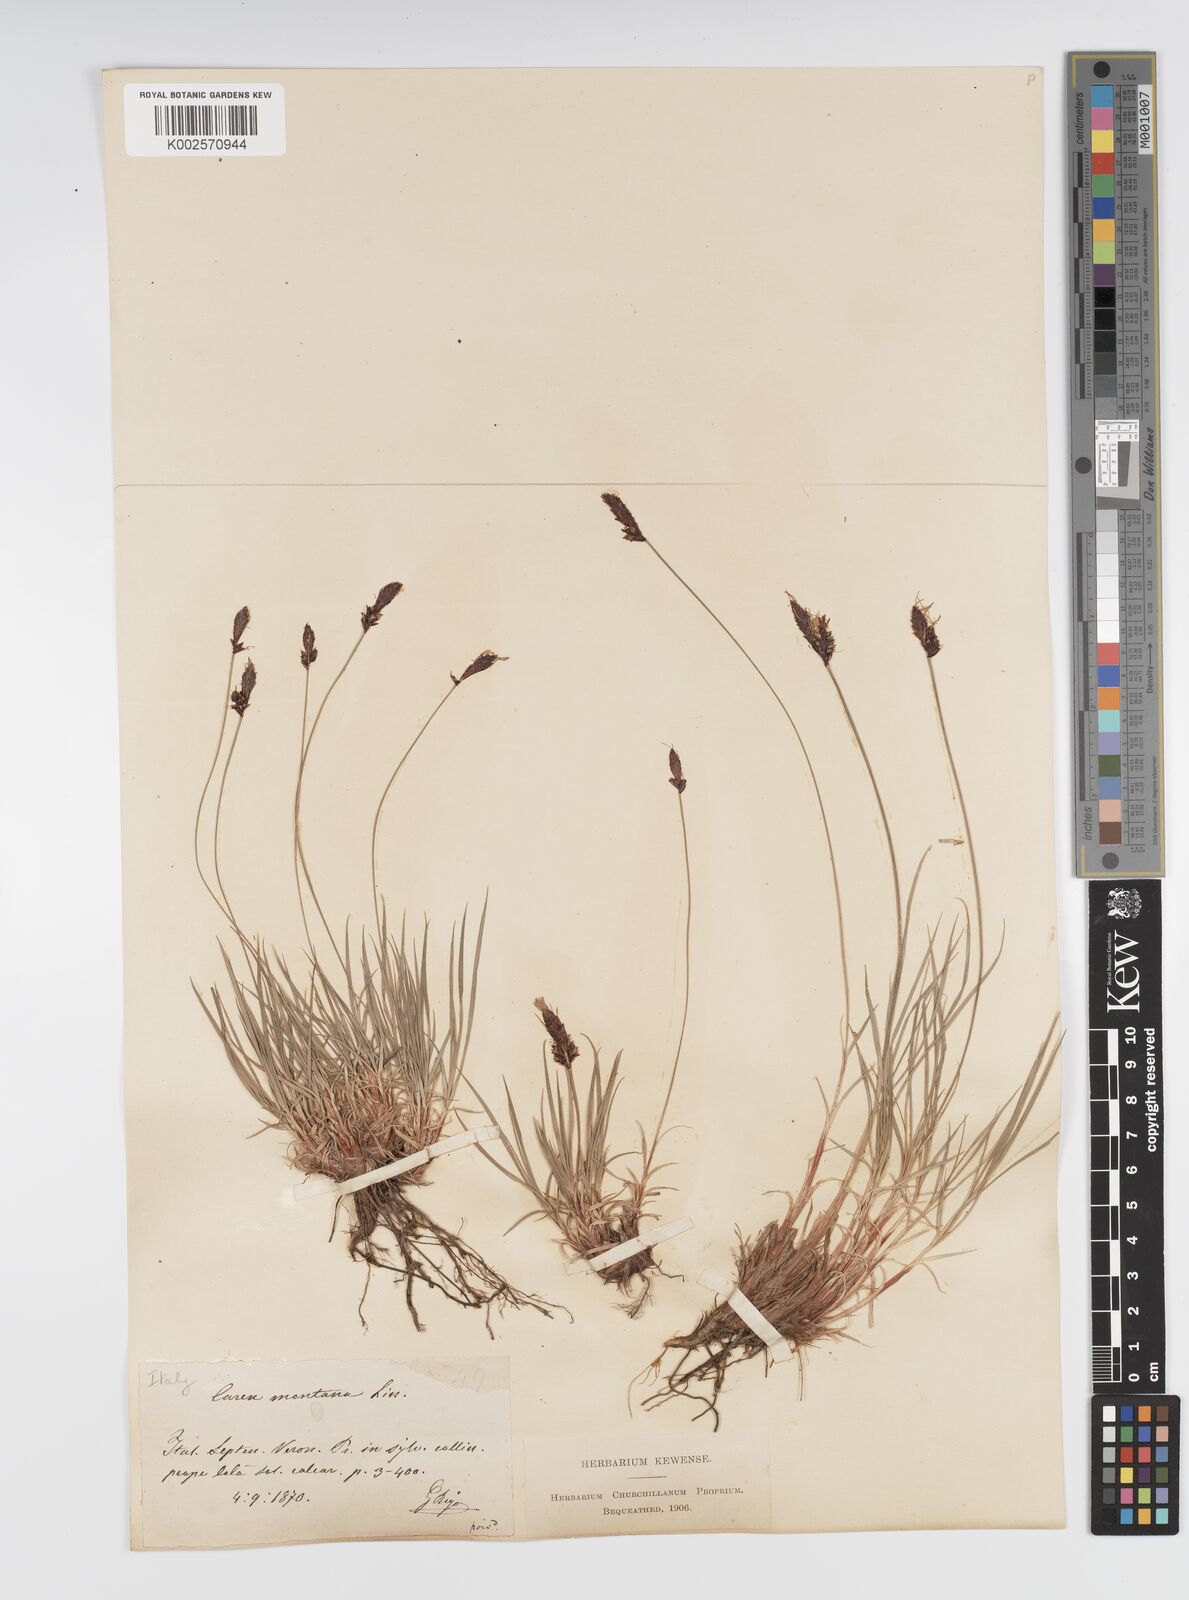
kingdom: Plantae
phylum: Tracheophyta
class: Liliopsida
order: Poales
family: Cyperaceae
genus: Carex
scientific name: Carex montana
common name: Soft-leaved sedge
